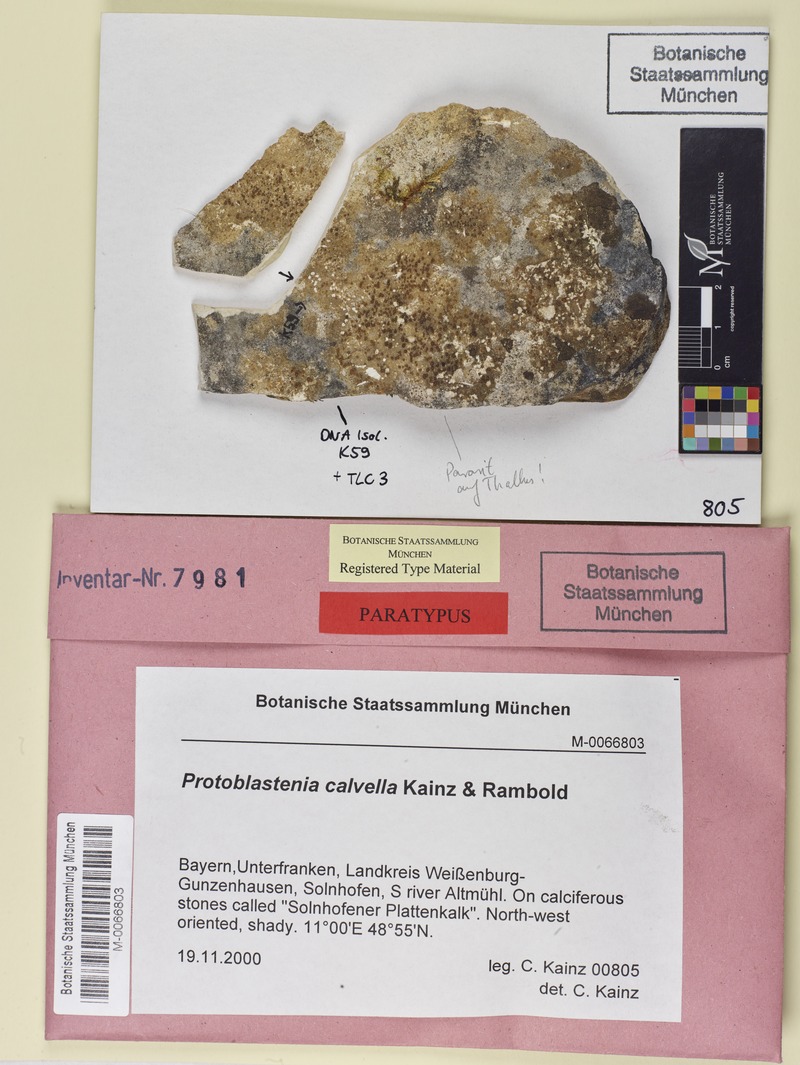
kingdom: Fungi
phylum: Ascomycota
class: Lecanoromycetes
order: Lecanorales
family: Psoraceae
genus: Protoblastenia
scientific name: Protoblastenia calvella
